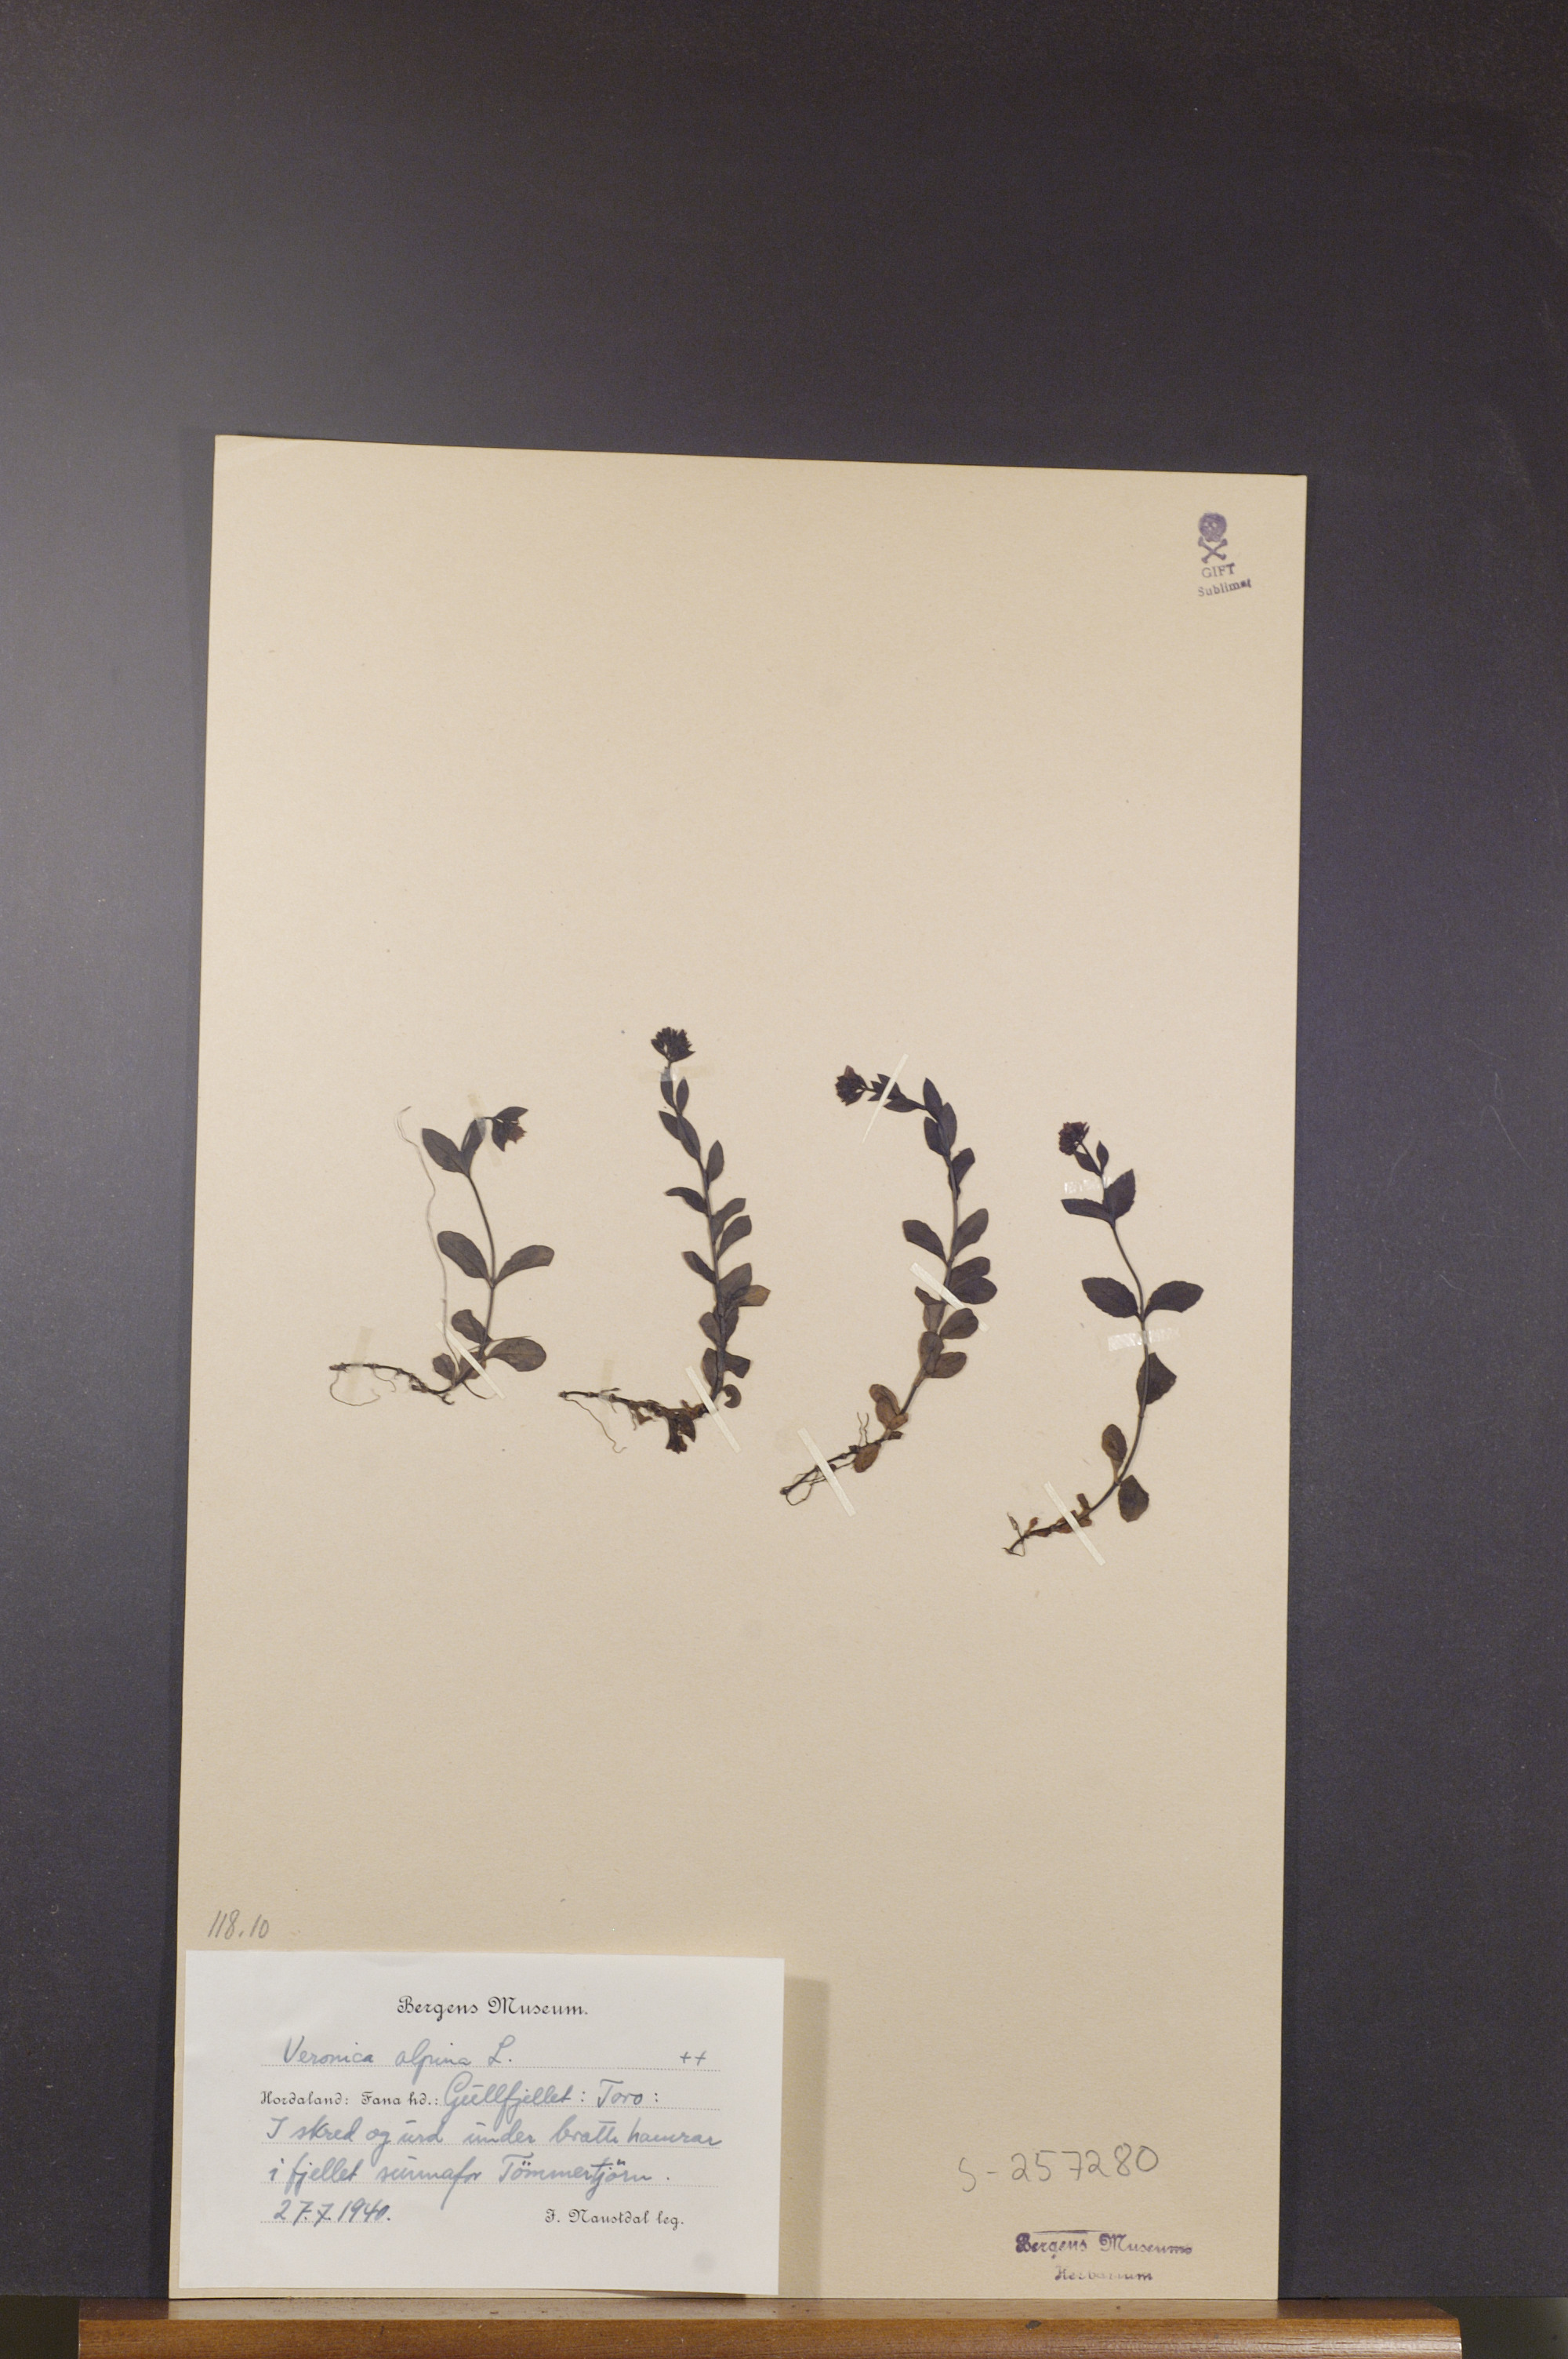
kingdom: Plantae
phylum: Tracheophyta
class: Magnoliopsida
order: Lamiales
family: Plantaginaceae
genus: Veronica
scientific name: Veronica alpina
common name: Alpine speedwell
